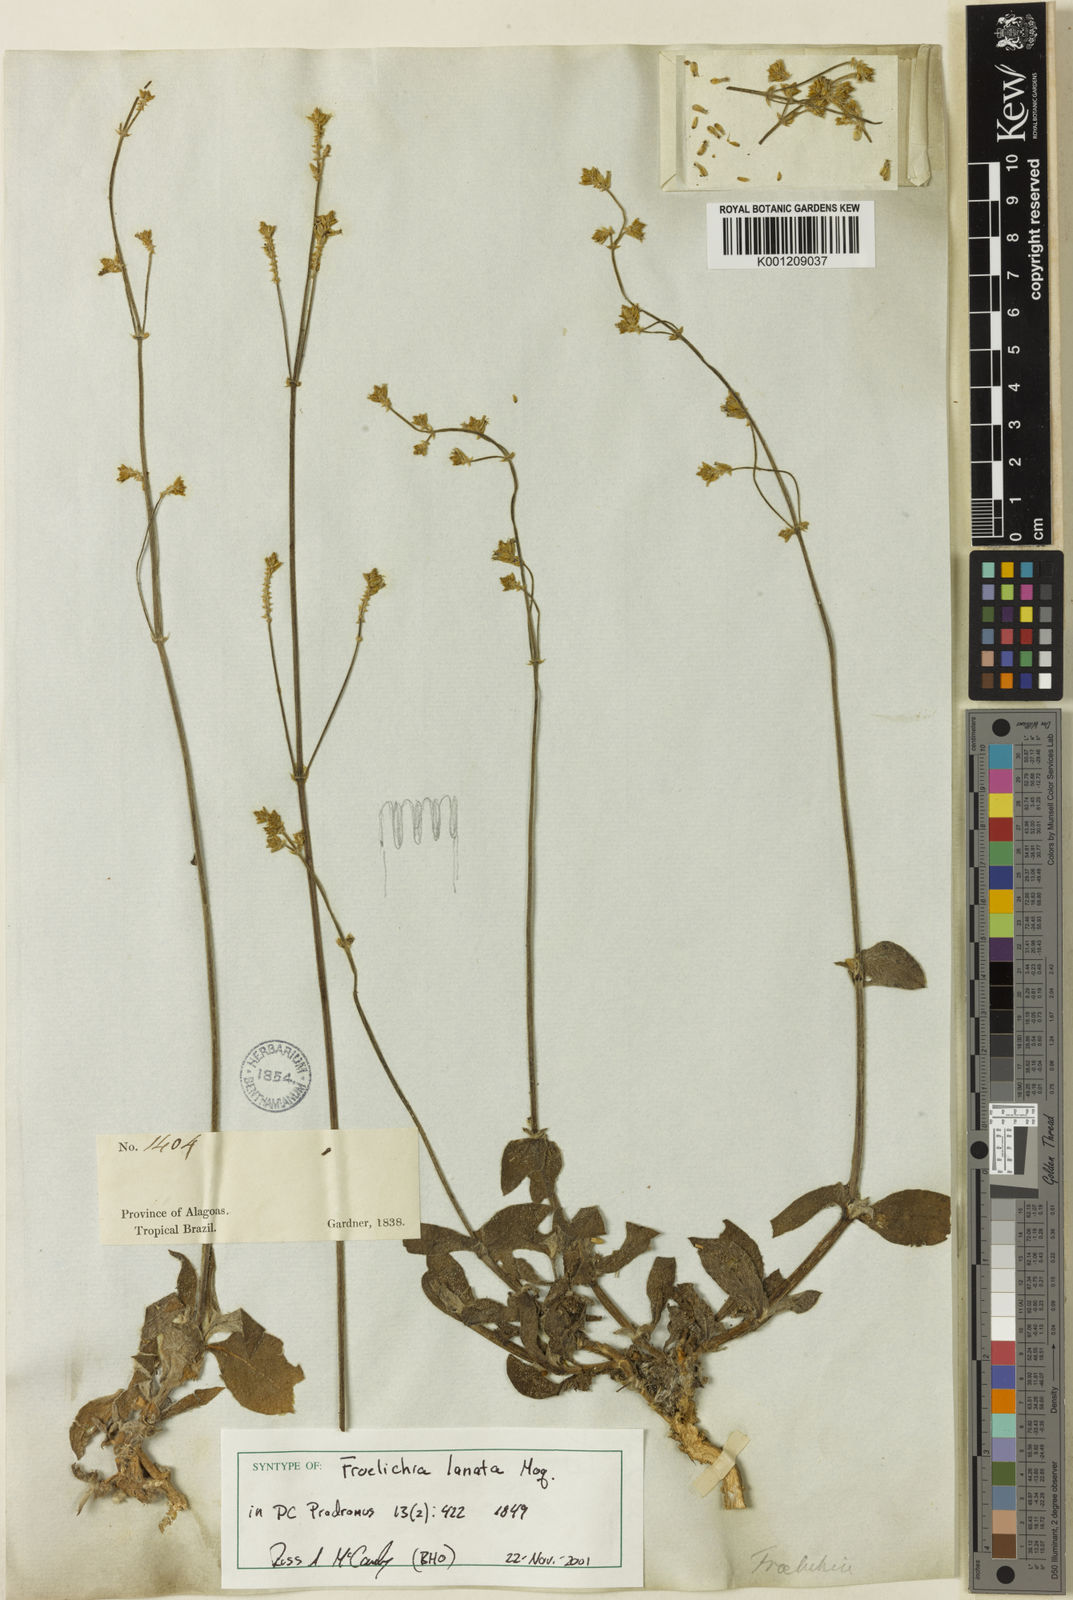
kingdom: Plantae
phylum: Tracheophyta
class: Magnoliopsida
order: Caryophyllales
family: Amaranthaceae
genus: Froelichia
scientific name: Froelichia
